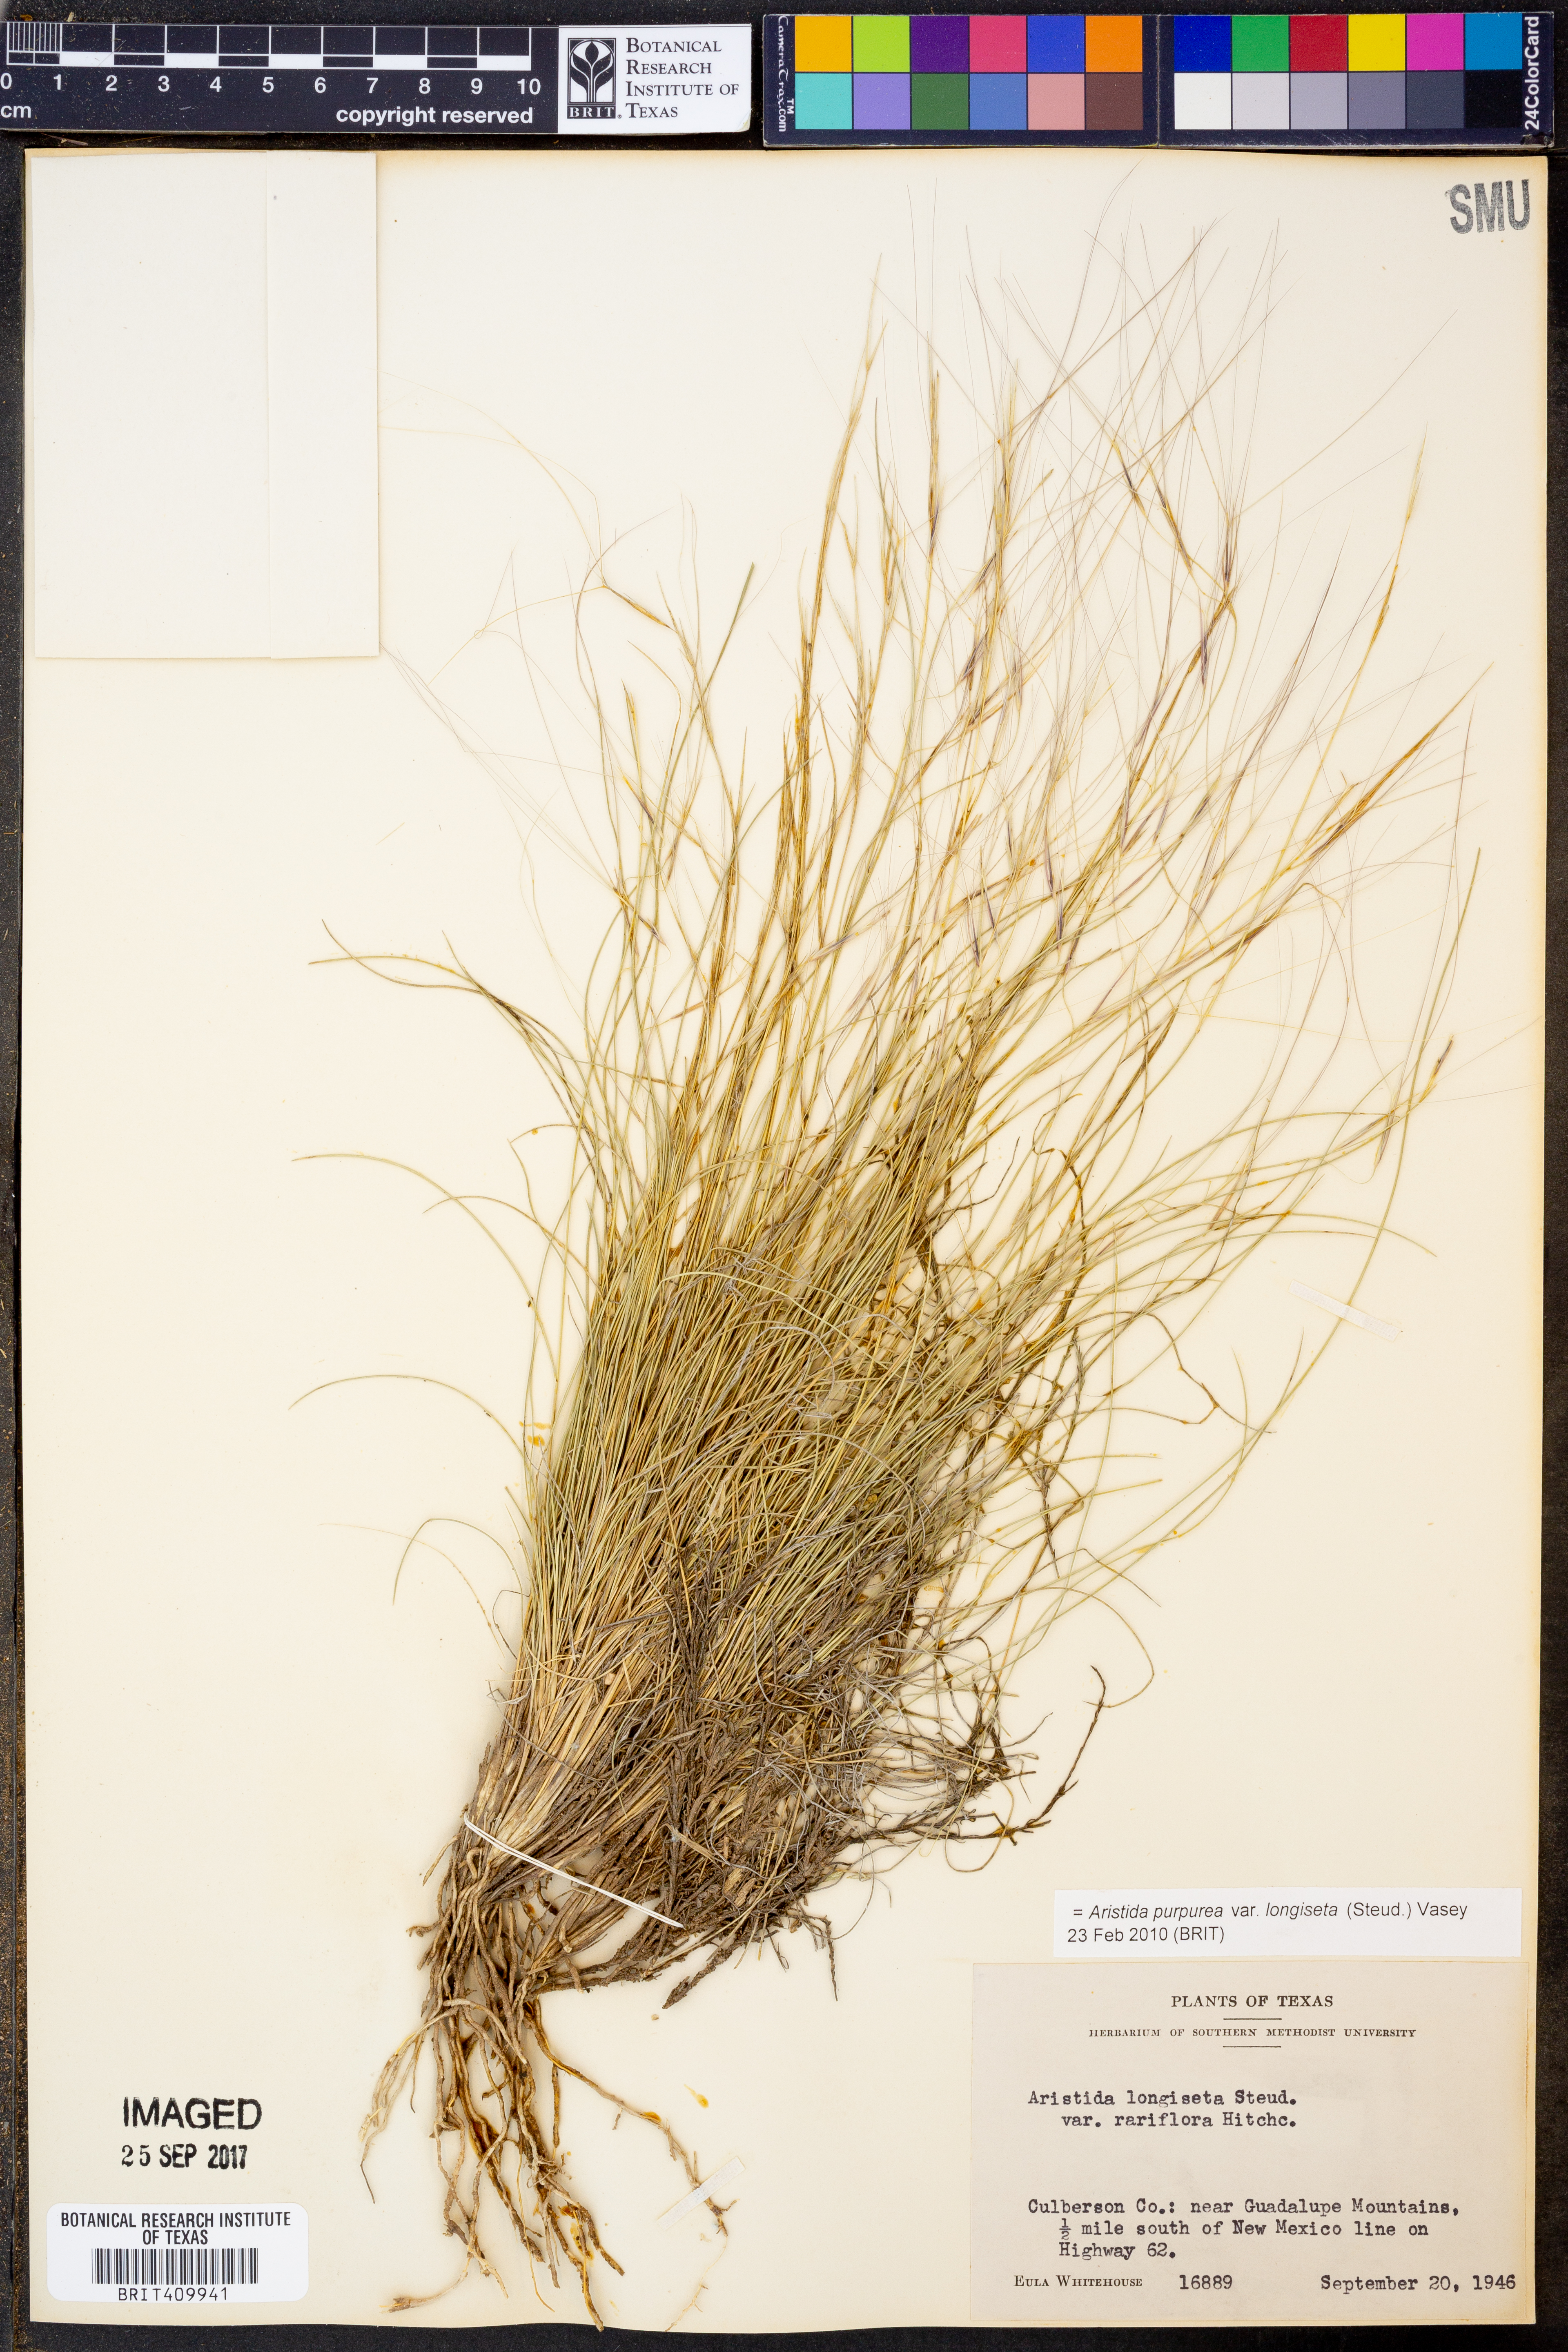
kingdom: Plantae
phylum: Tracheophyta
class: Liliopsida
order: Poales
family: Poaceae
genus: Aristida
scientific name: Aristida longiseta
